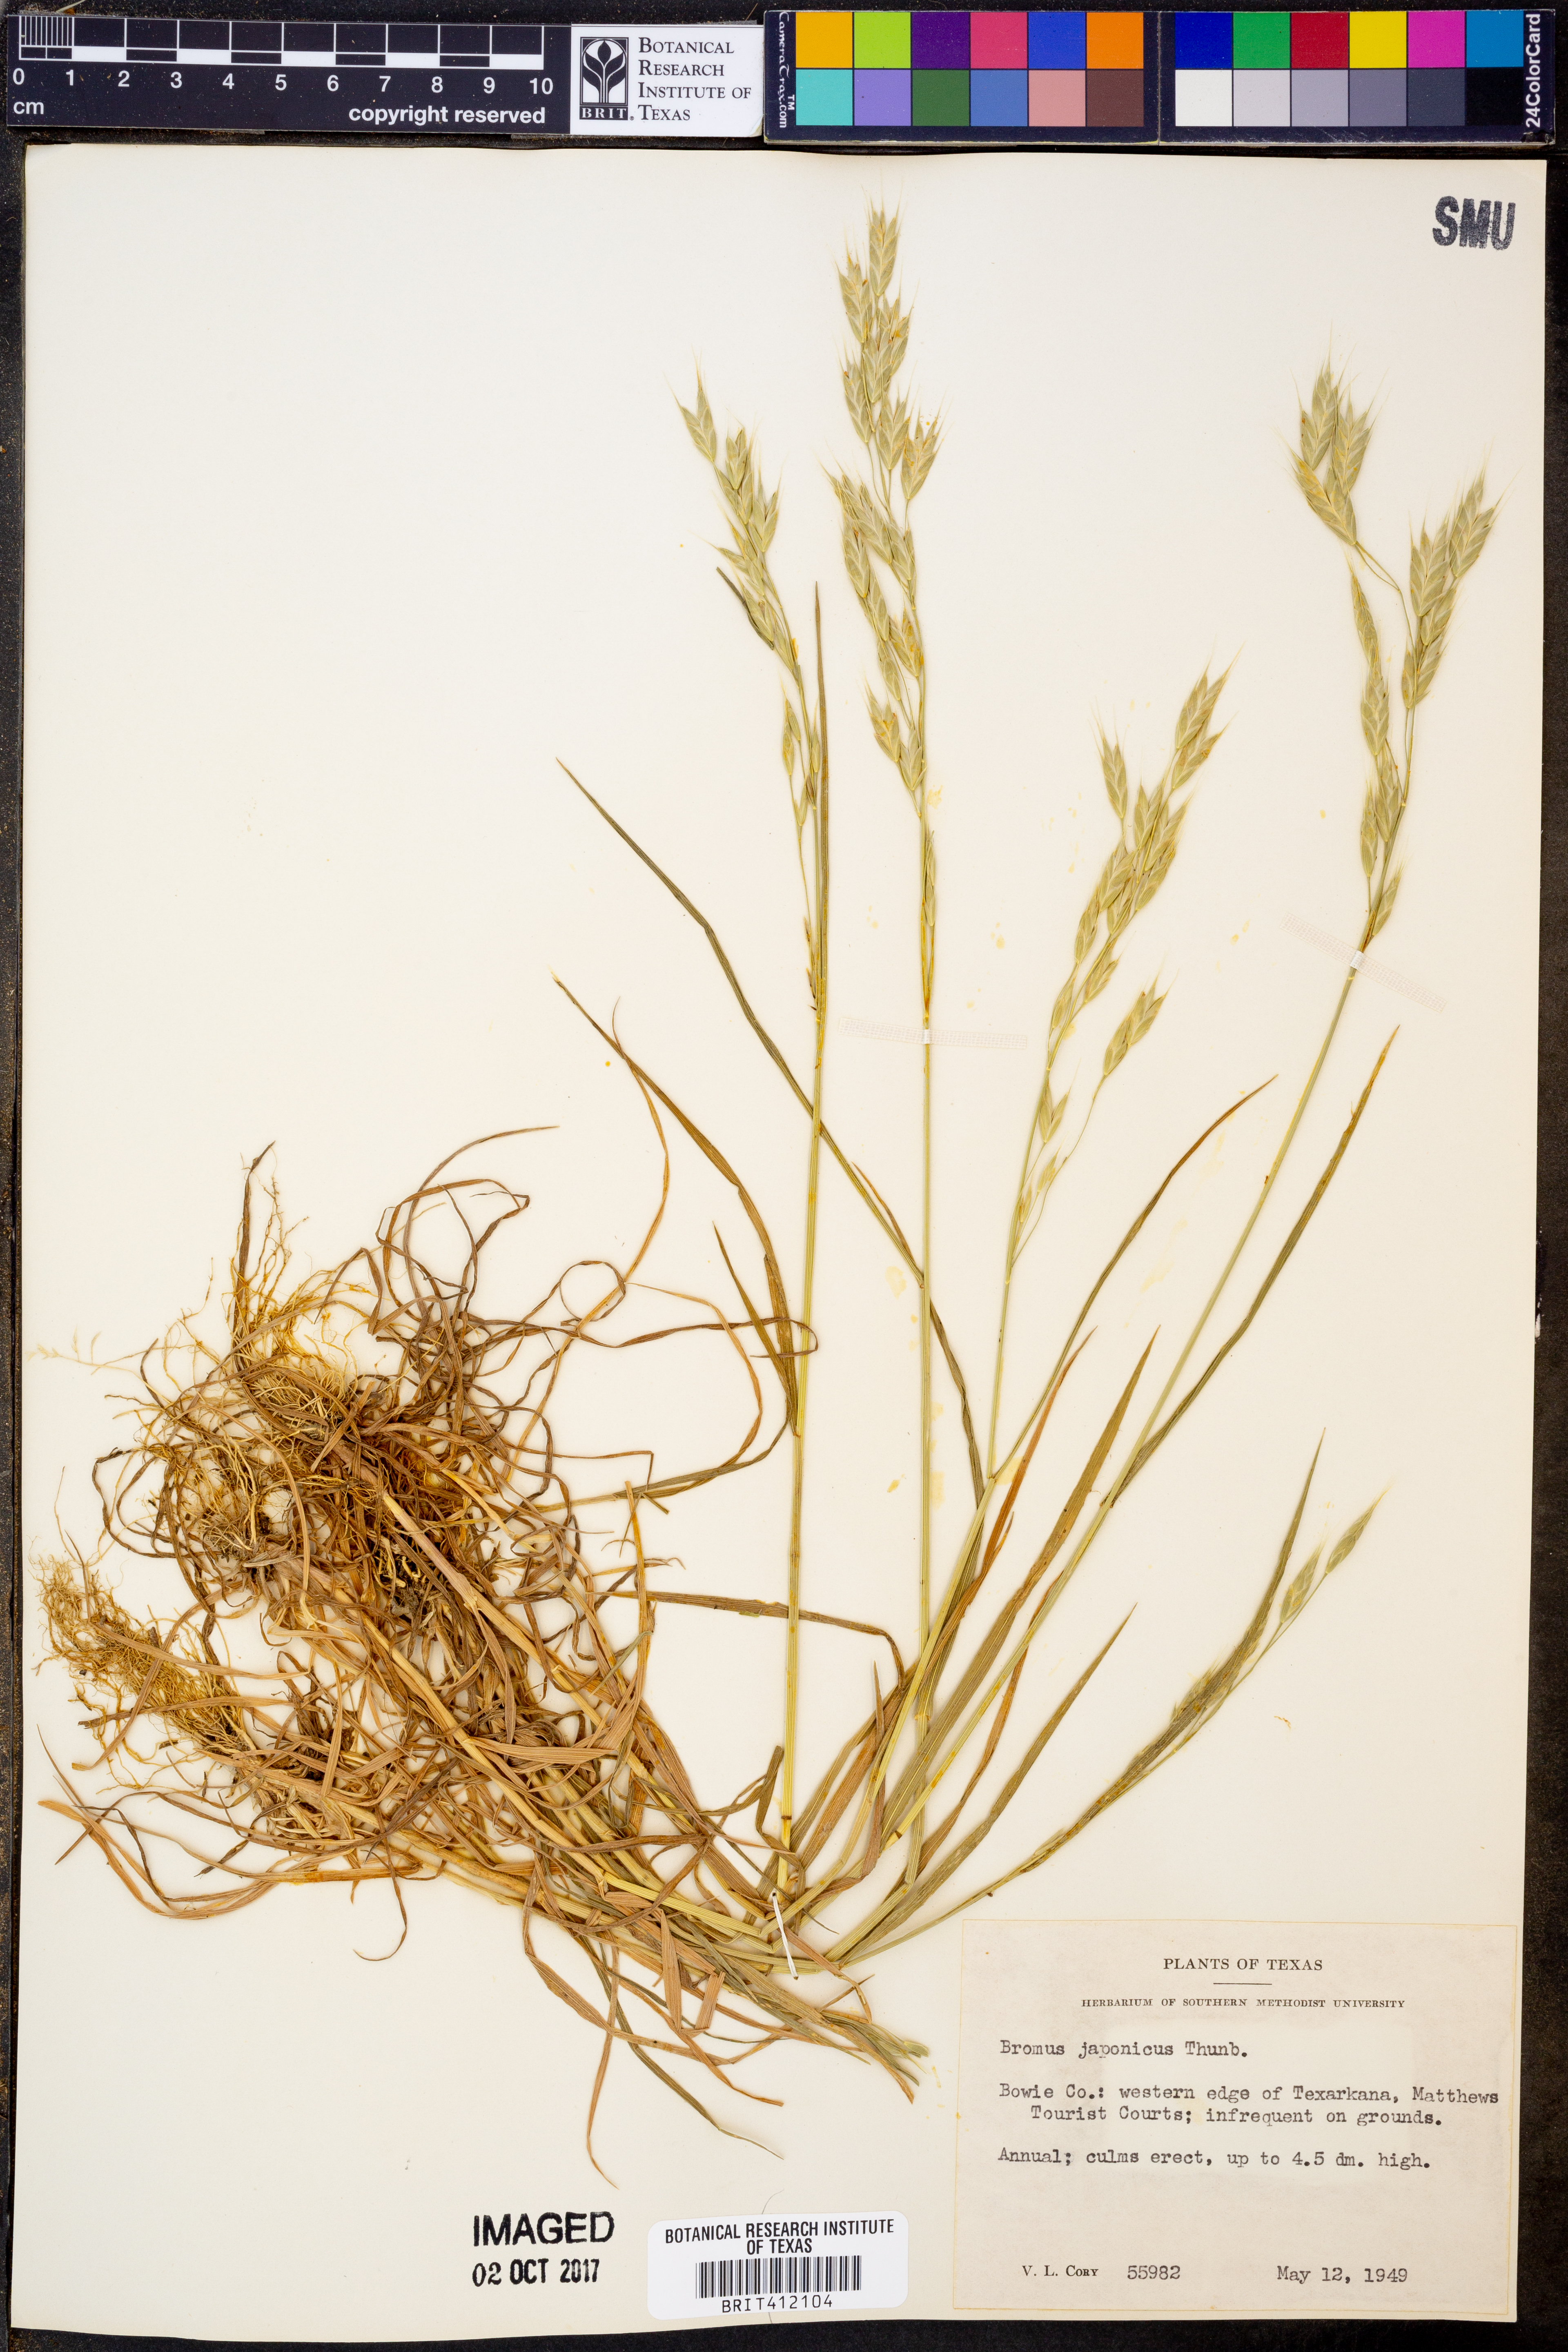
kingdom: Plantae
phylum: Tracheophyta
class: Liliopsida
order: Poales
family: Poaceae
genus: Bromus
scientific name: Bromus japonicus
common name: Japanese brome
